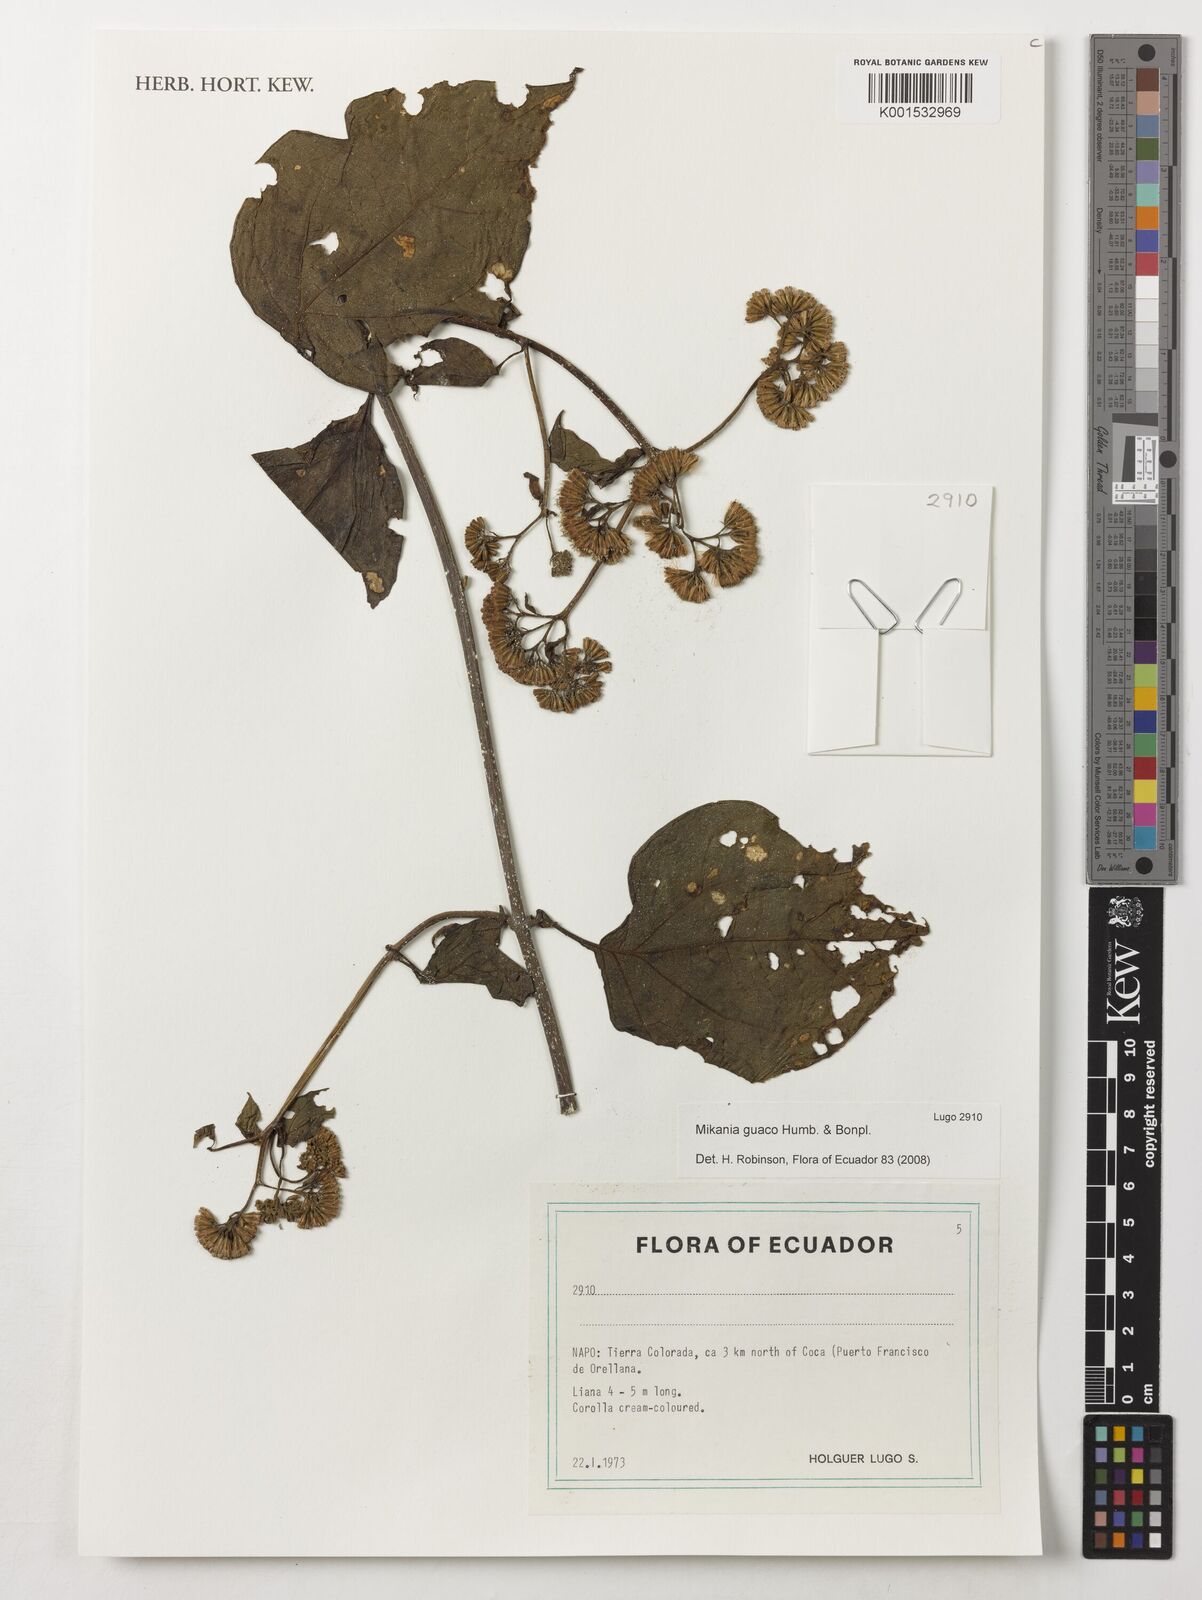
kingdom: Plantae
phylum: Tracheophyta
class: Magnoliopsida
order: Asterales
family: Asteraceae
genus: Mikania
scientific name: Mikania guaco
